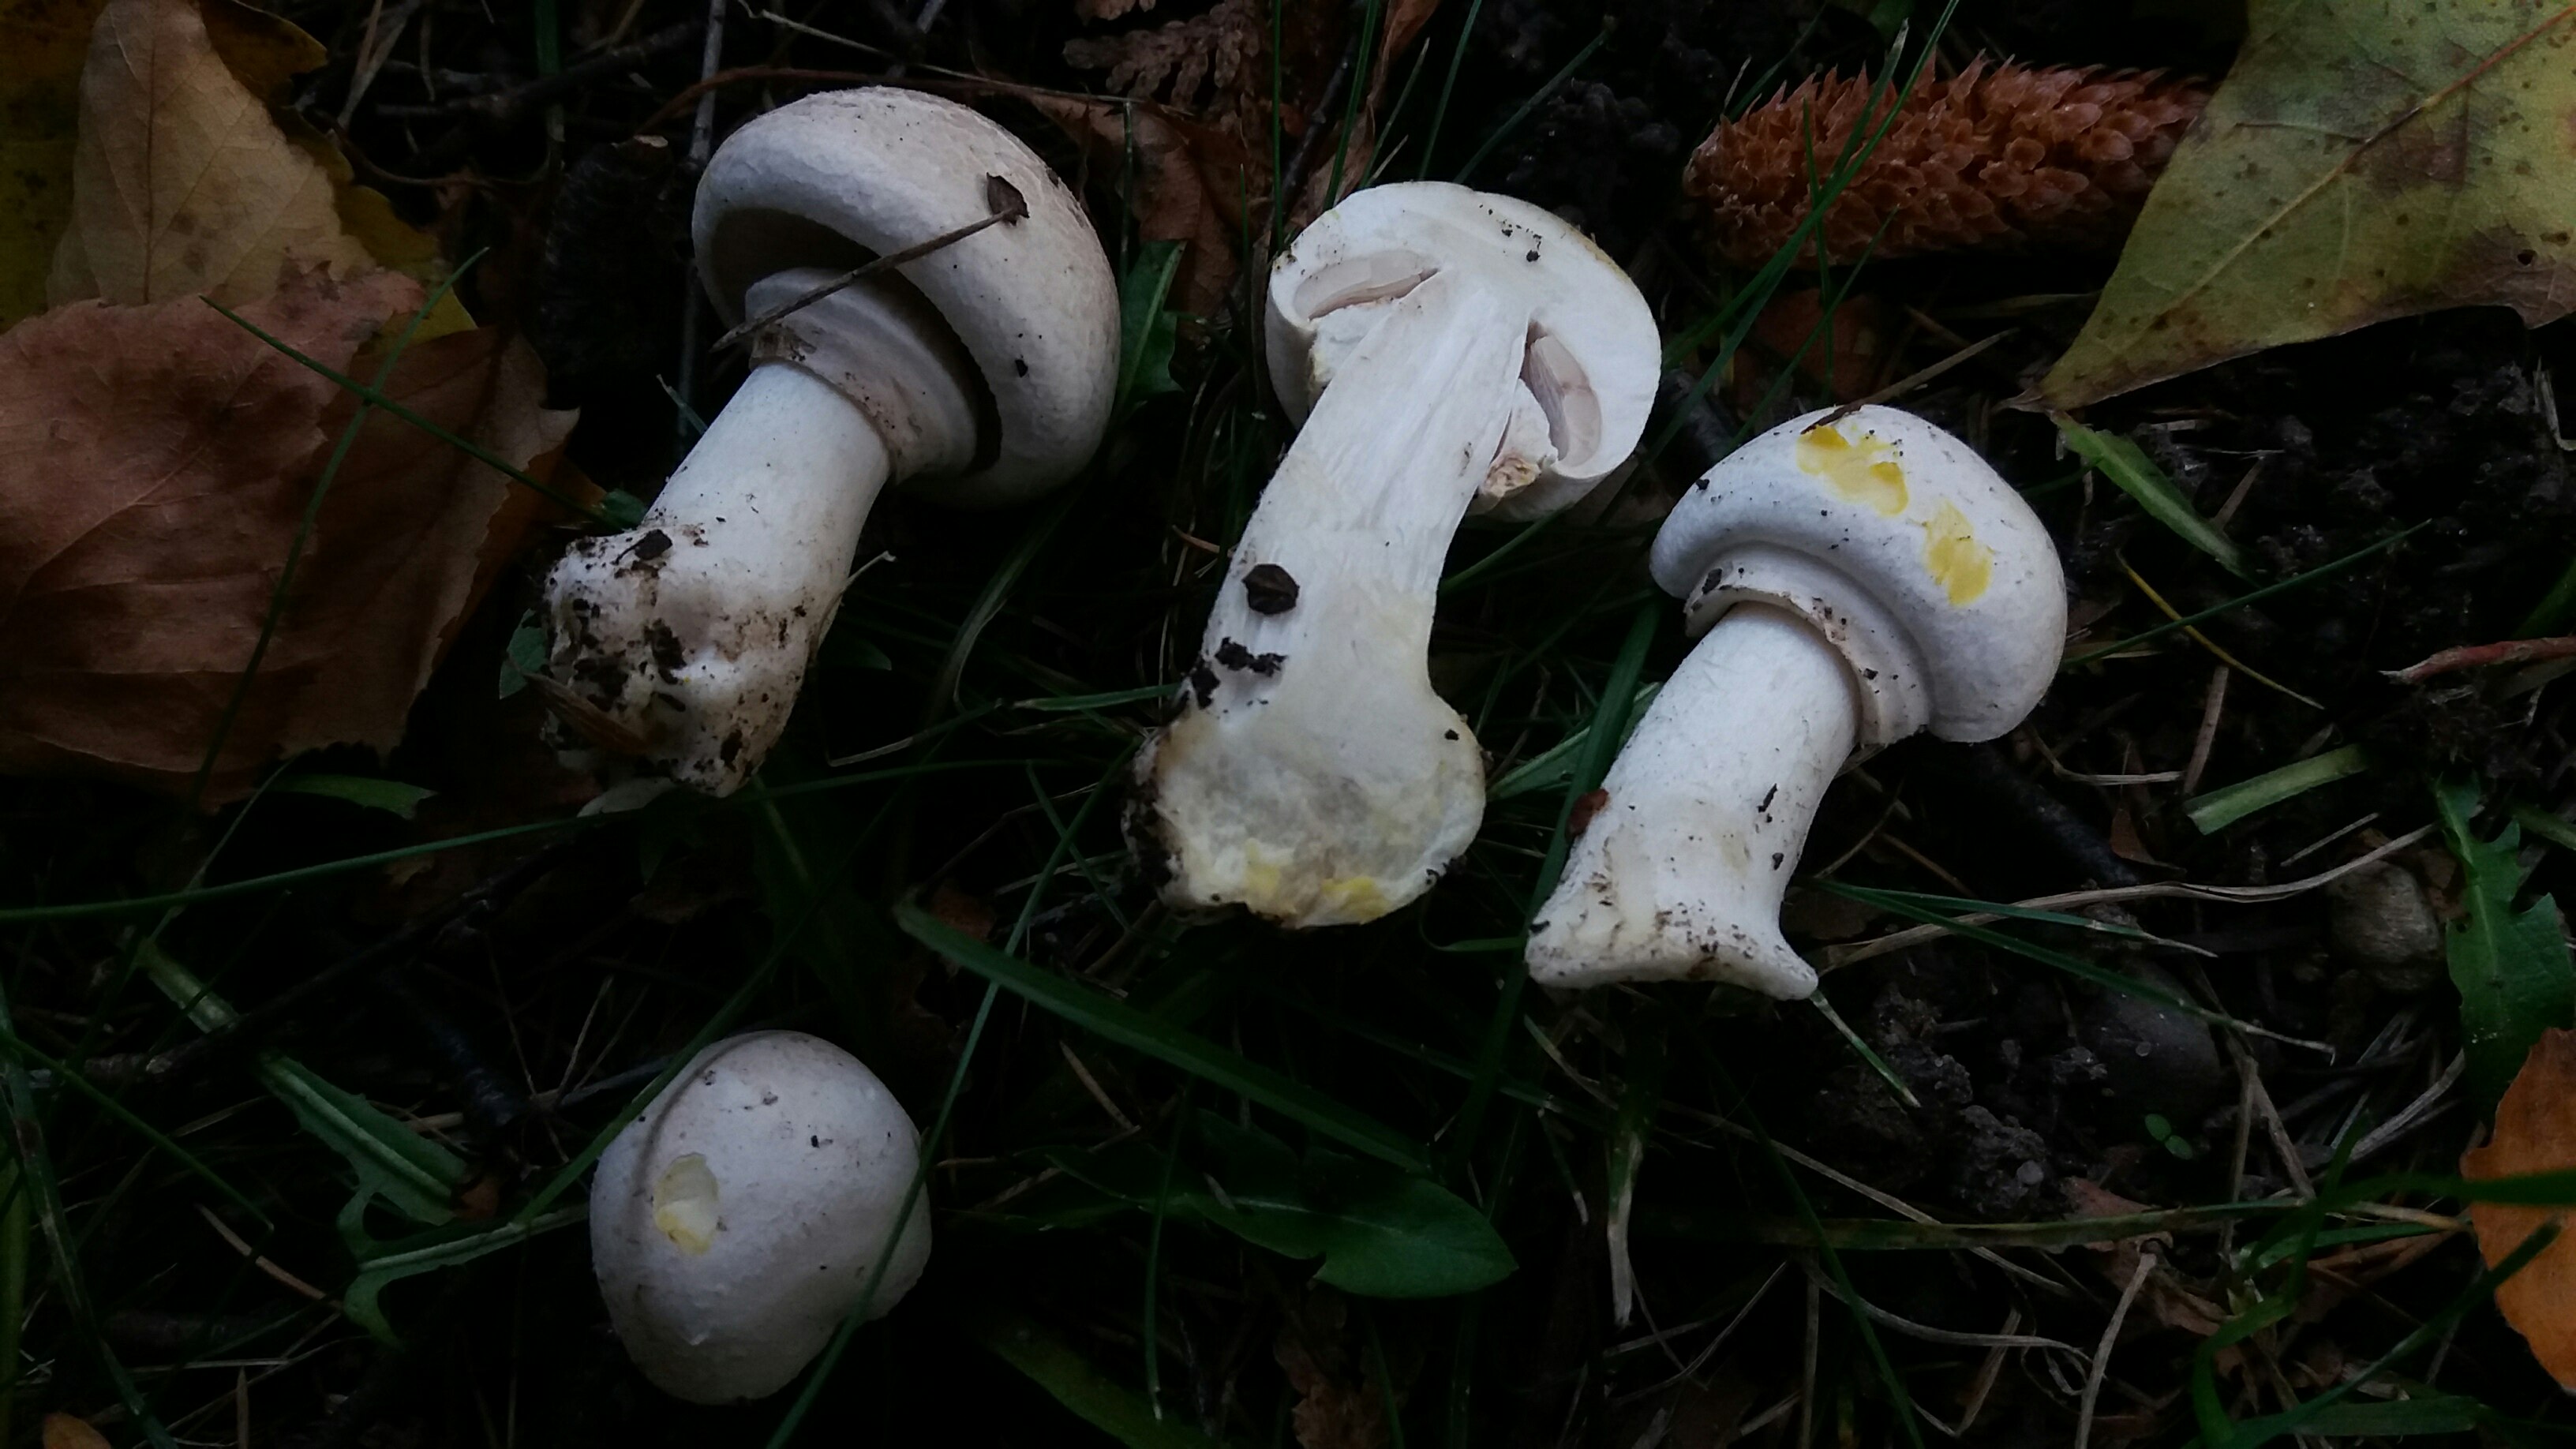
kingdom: Fungi
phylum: Basidiomycota
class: Agaricomycetes
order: Agaricales
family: Agaricaceae
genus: Agaricus
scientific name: Agaricus xanthodermus
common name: karbol-champignon
